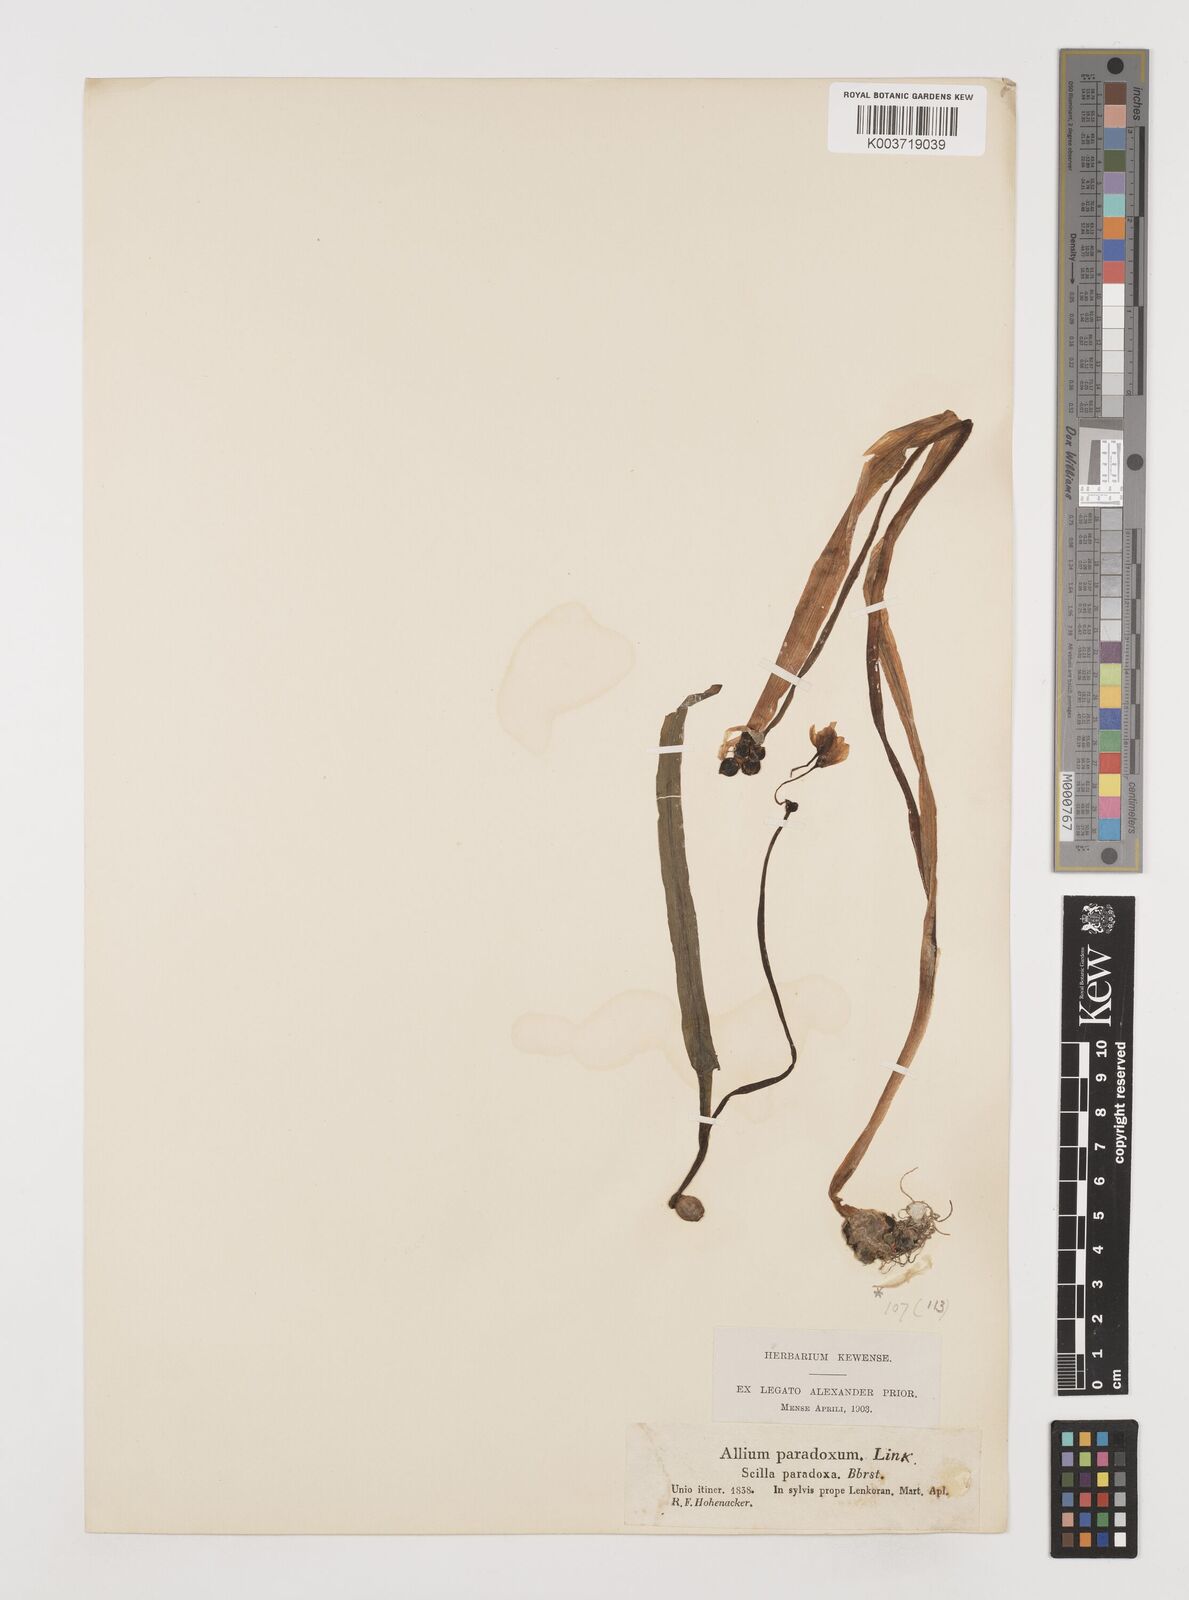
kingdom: Plantae
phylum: Tracheophyta
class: Liliopsida
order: Asparagales
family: Amaryllidaceae
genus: Allium
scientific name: Allium paradoxum
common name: Few-flowered garlic
